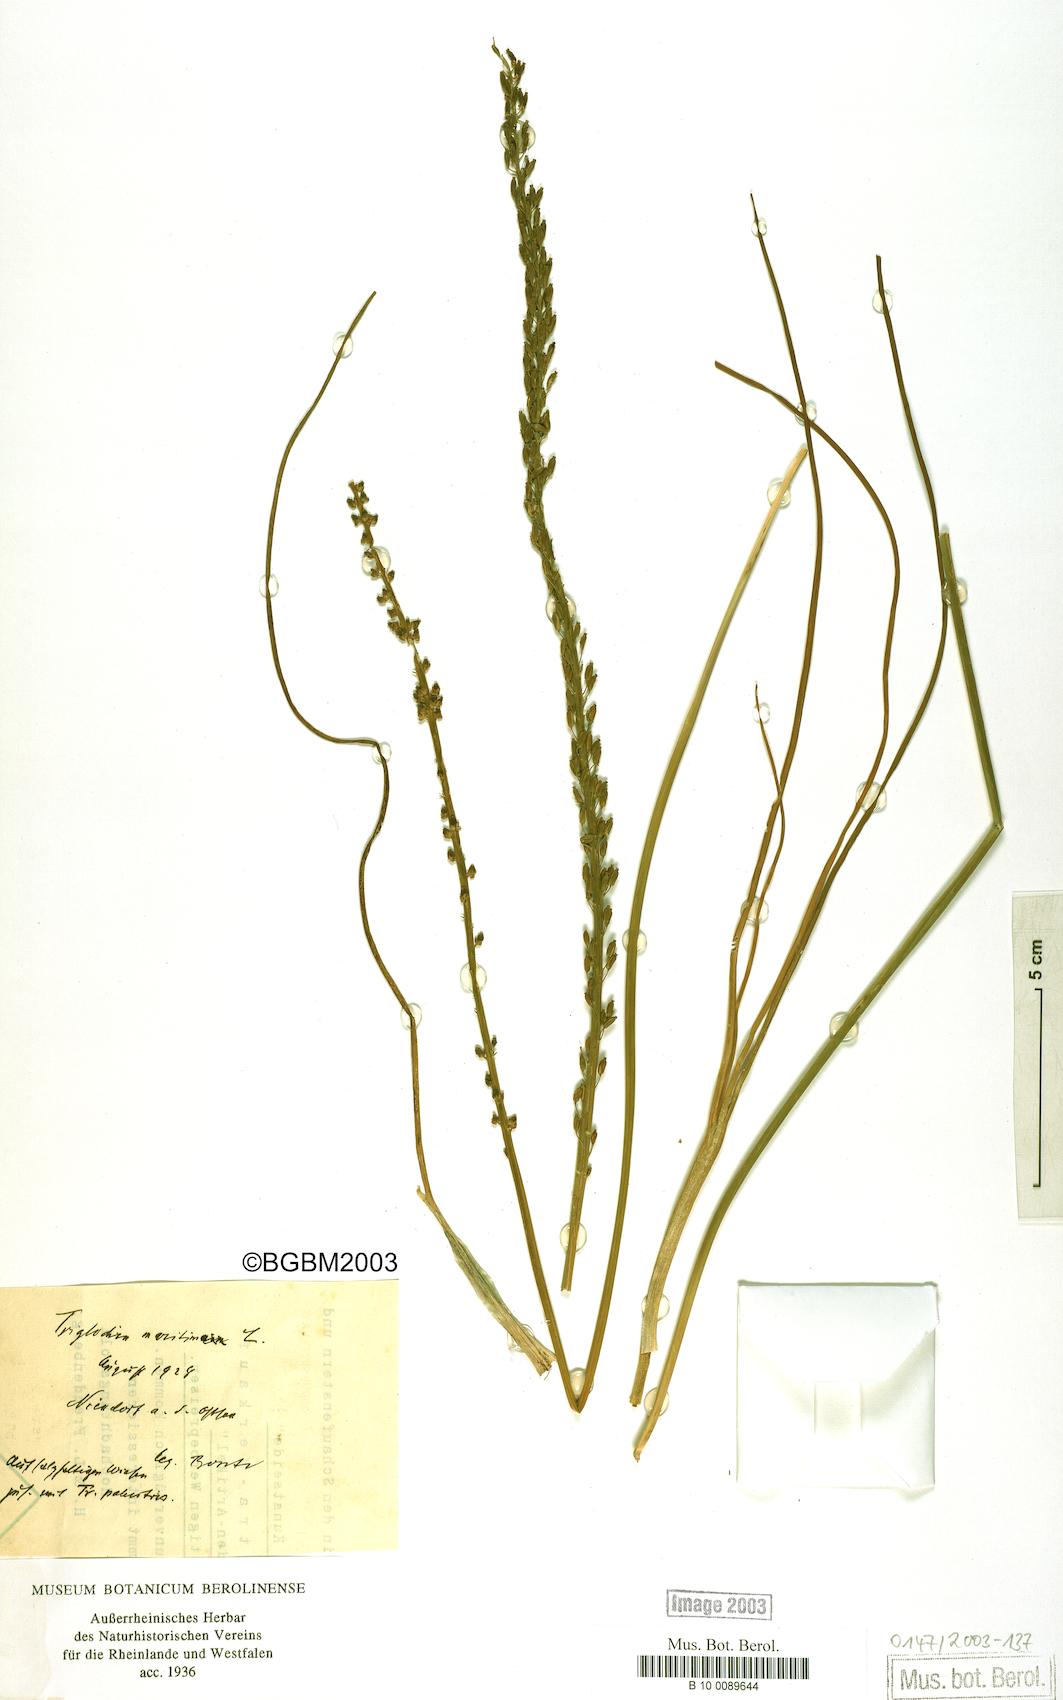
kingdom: Plantae
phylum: Tracheophyta
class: Liliopsida
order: Alismatales
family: Juncaginaceae
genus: Triglochin
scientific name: Triglochin maritima
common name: Sea arrowgrass
